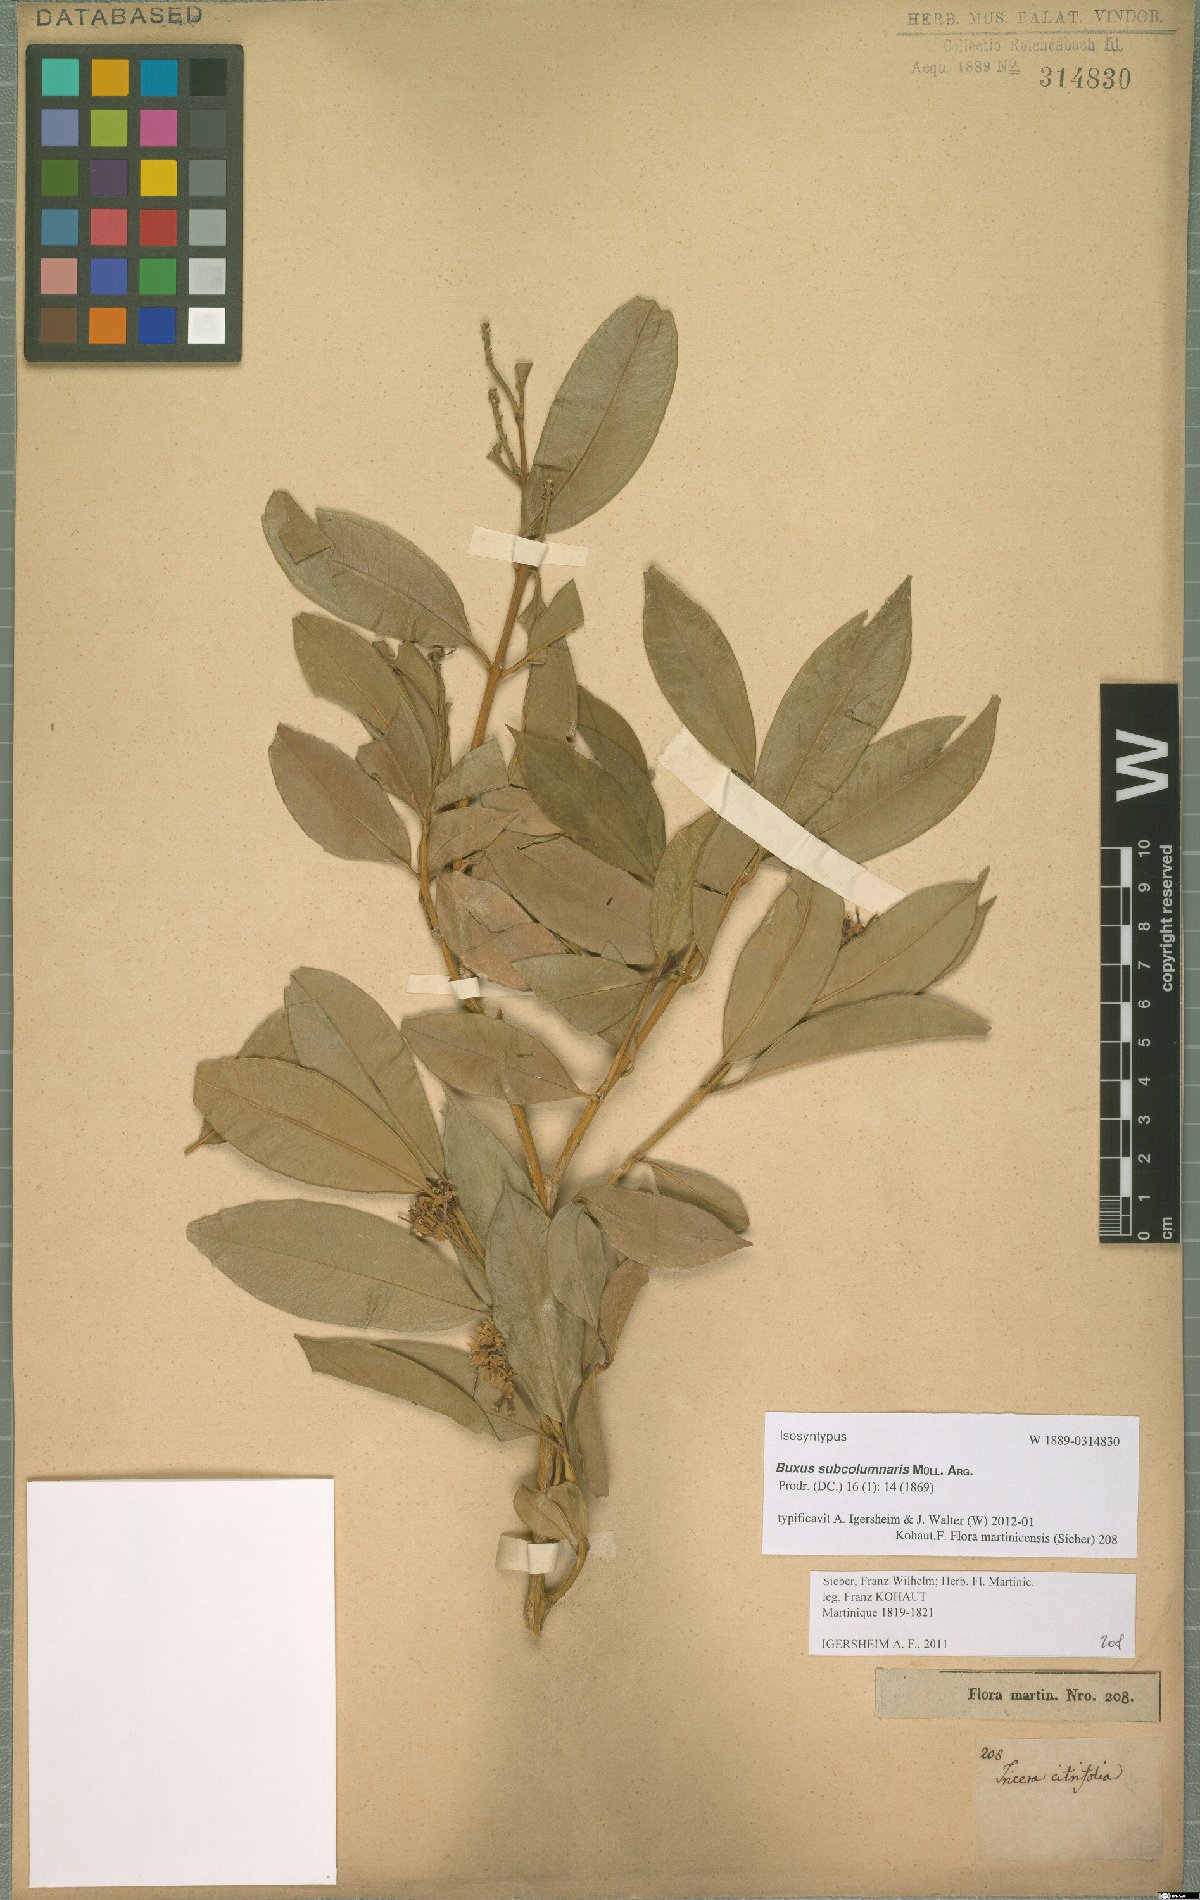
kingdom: Plantae
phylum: Tracheophyta
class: Magnoliopsida
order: Buxales
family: Buxaceae
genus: Buxus
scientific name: Buxus subcolumnaris
